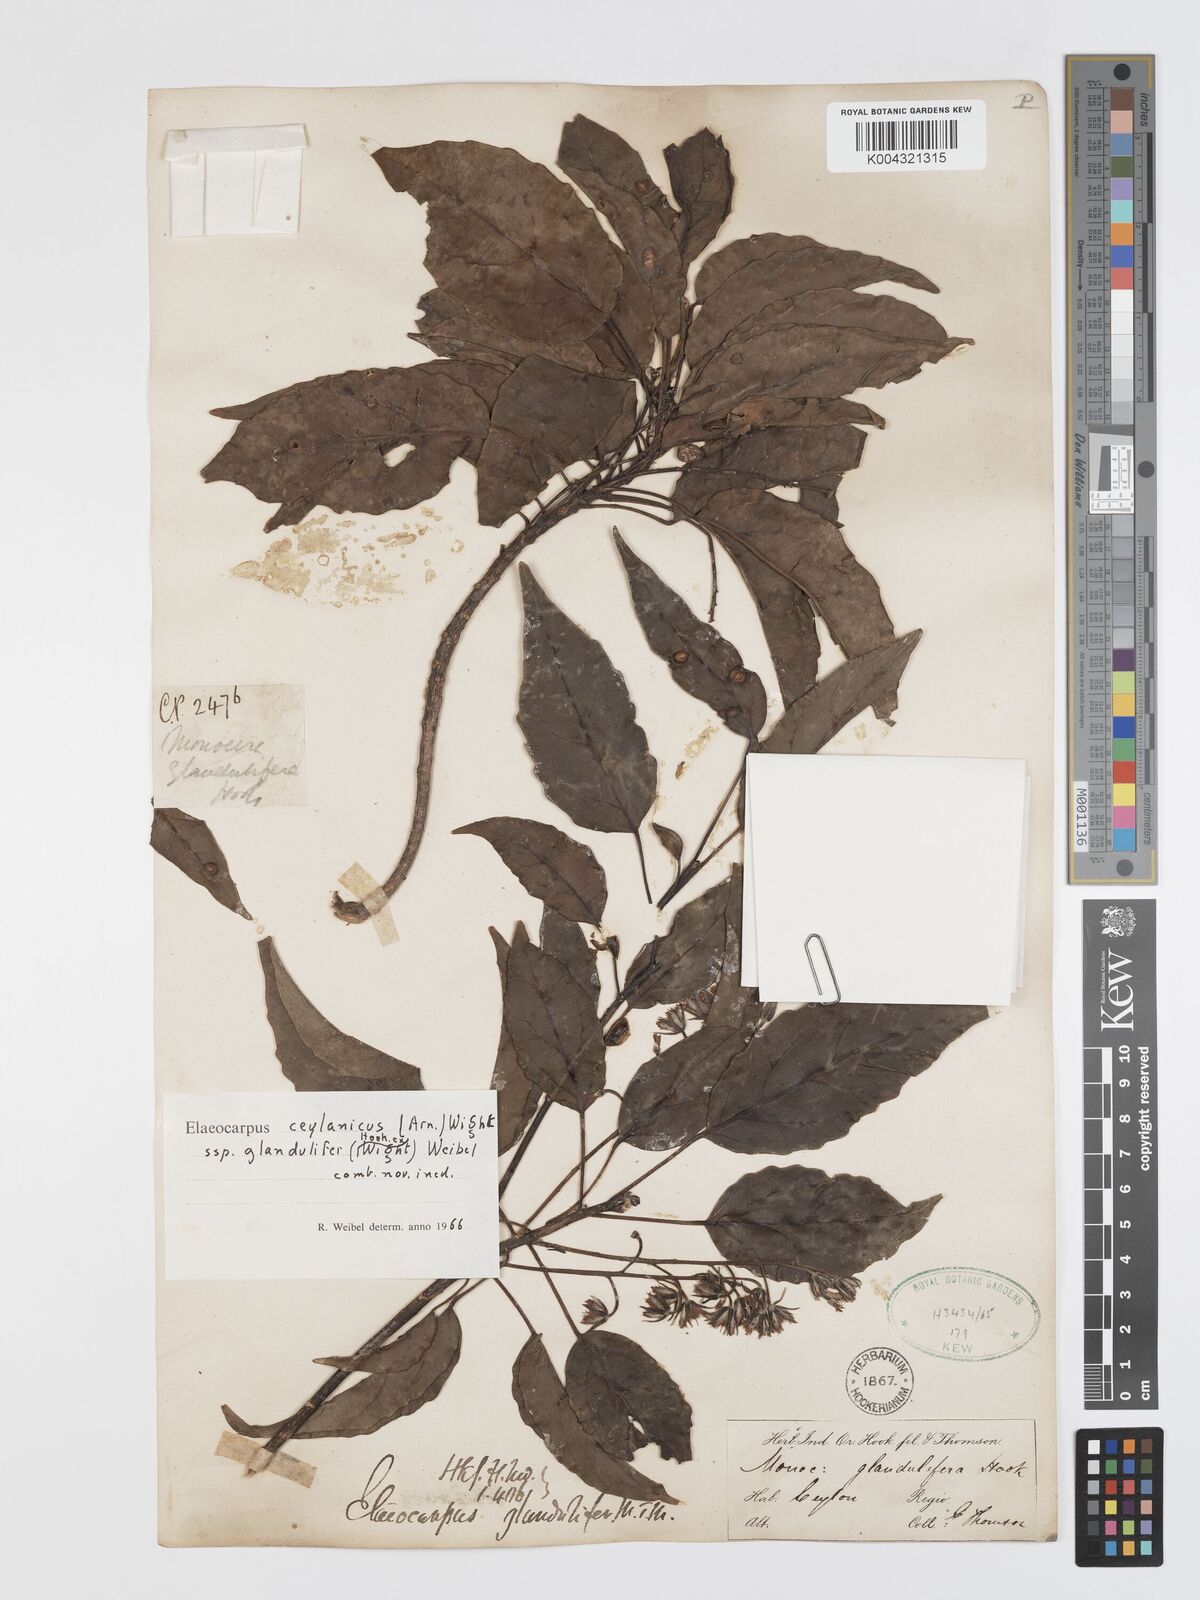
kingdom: Plantae
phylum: Tracheophyta
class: Magnoliopsida
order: Oxalidales
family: Elaeocarpaceae
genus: Elaeocarpus
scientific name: Elaeocarpus glandulifer
